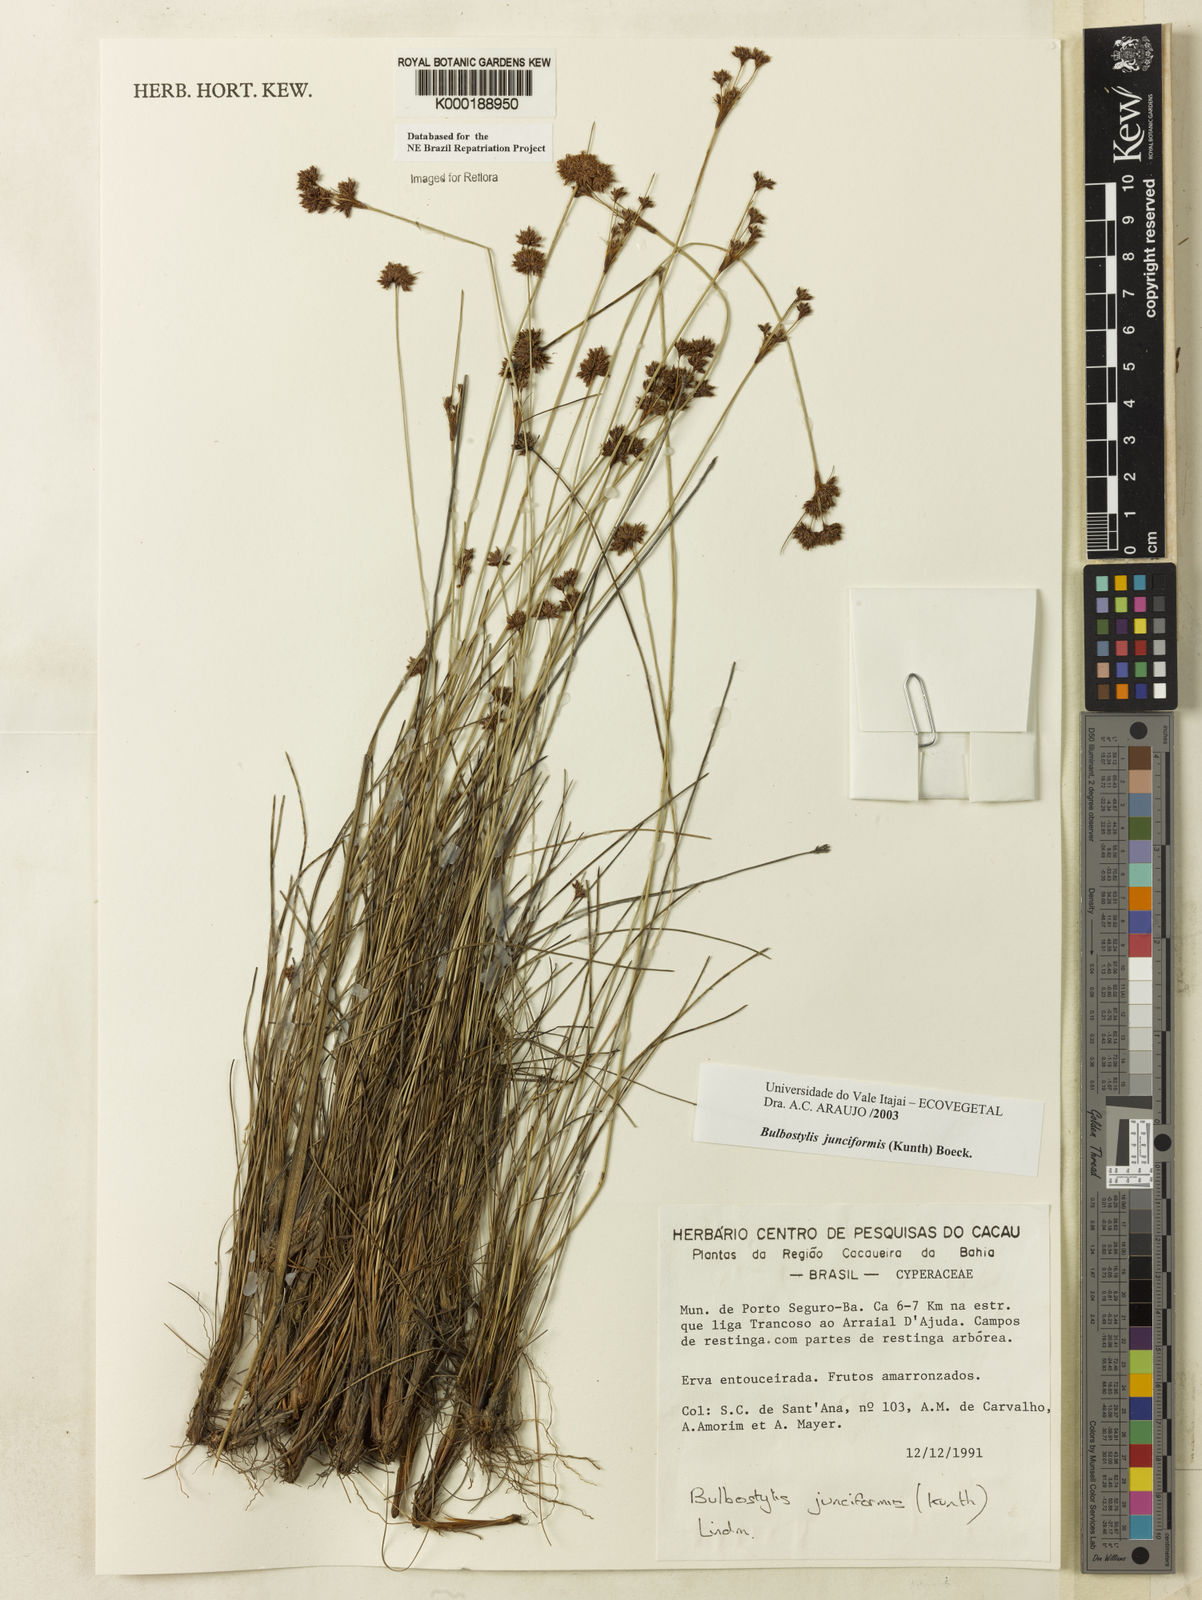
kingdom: Plantae
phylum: Tracheophyta
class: Liliopsida
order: Poales
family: Cyperaceae
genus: Bulbostylis
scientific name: Bulbostylis
